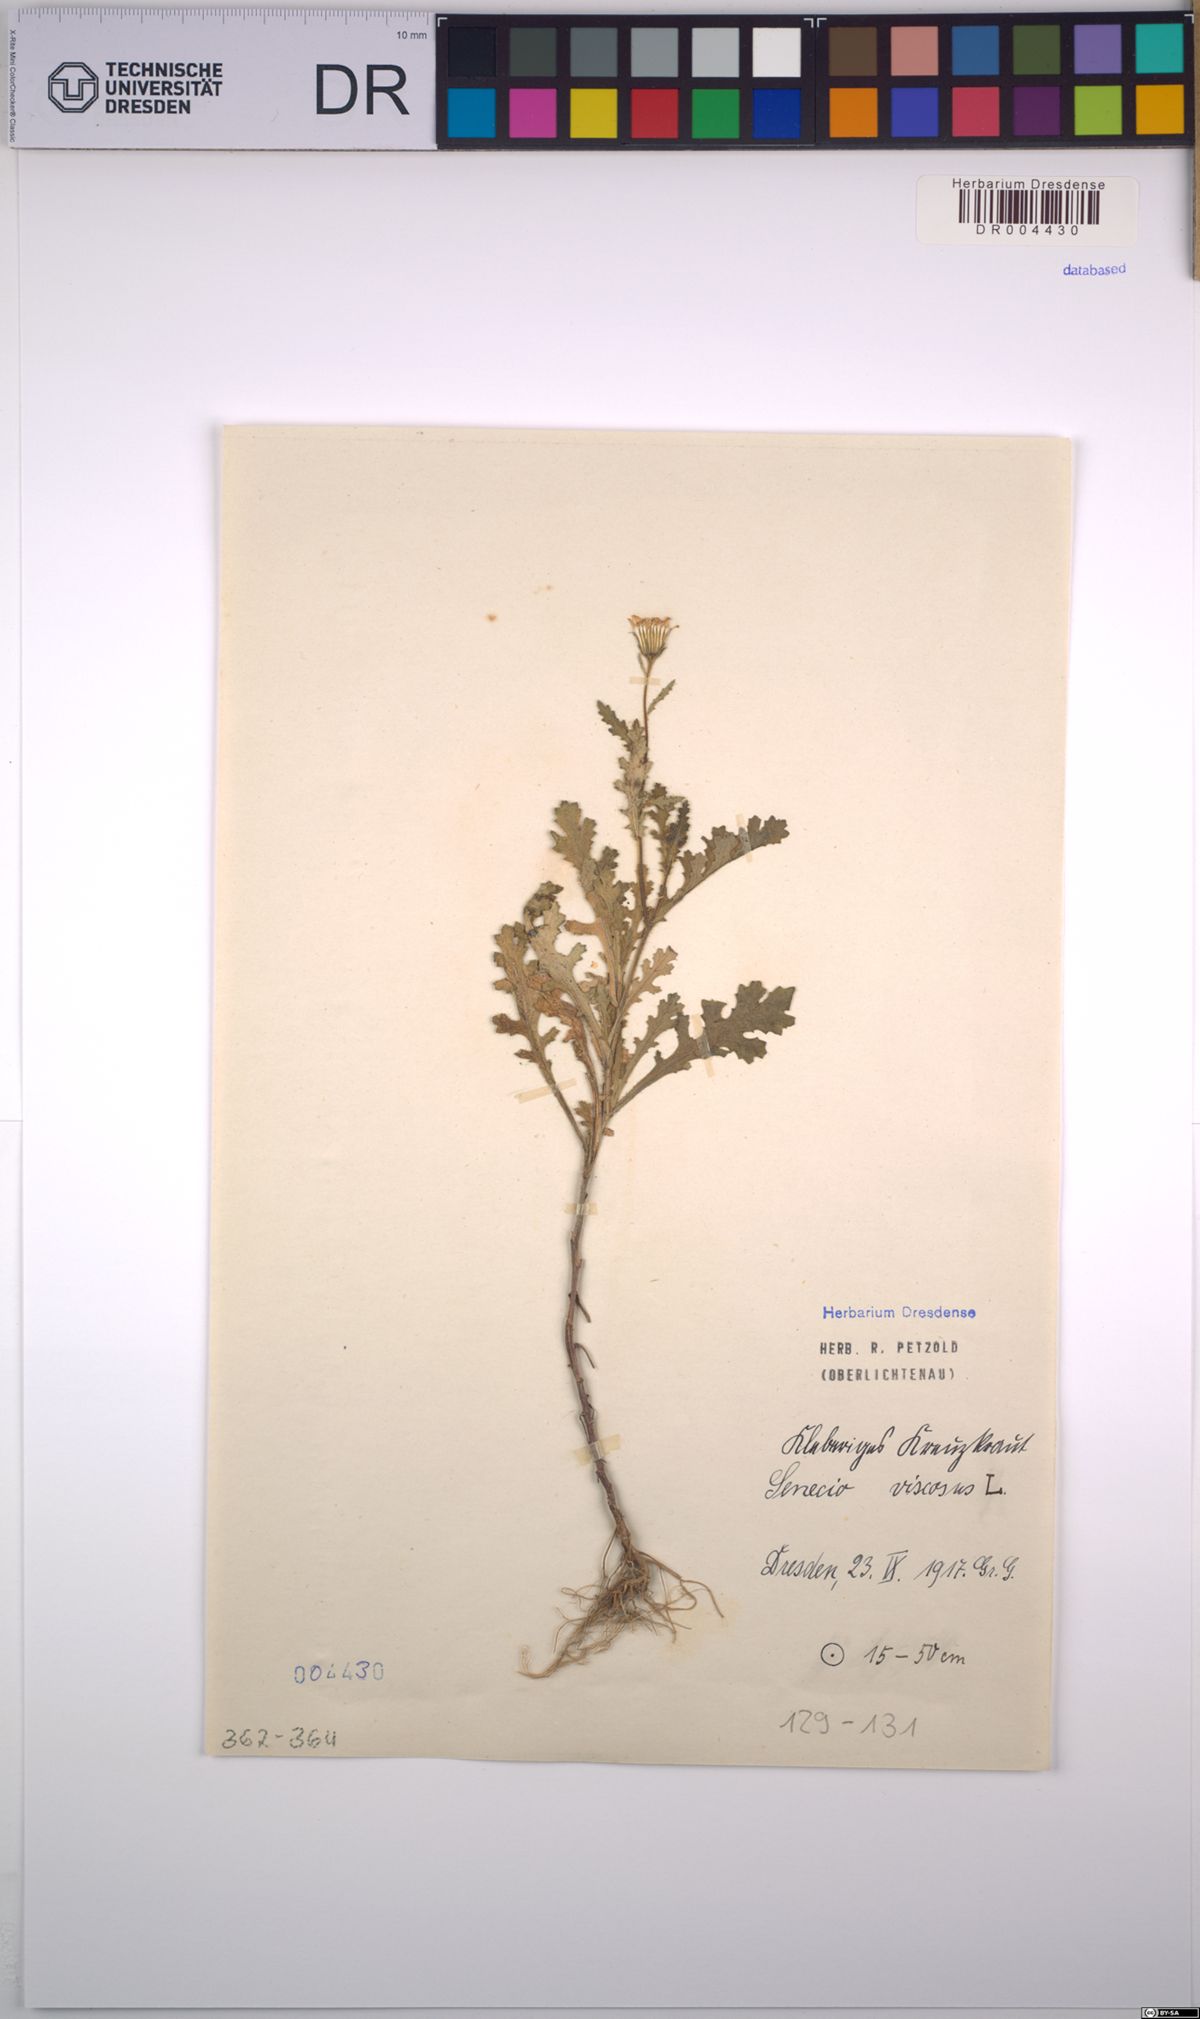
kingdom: Plantae
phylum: Tracheophyta
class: Magnoliopsida
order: Asterales
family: Asteraceae
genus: Senecio
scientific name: Senecio viscosus
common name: Sticky groundsel
